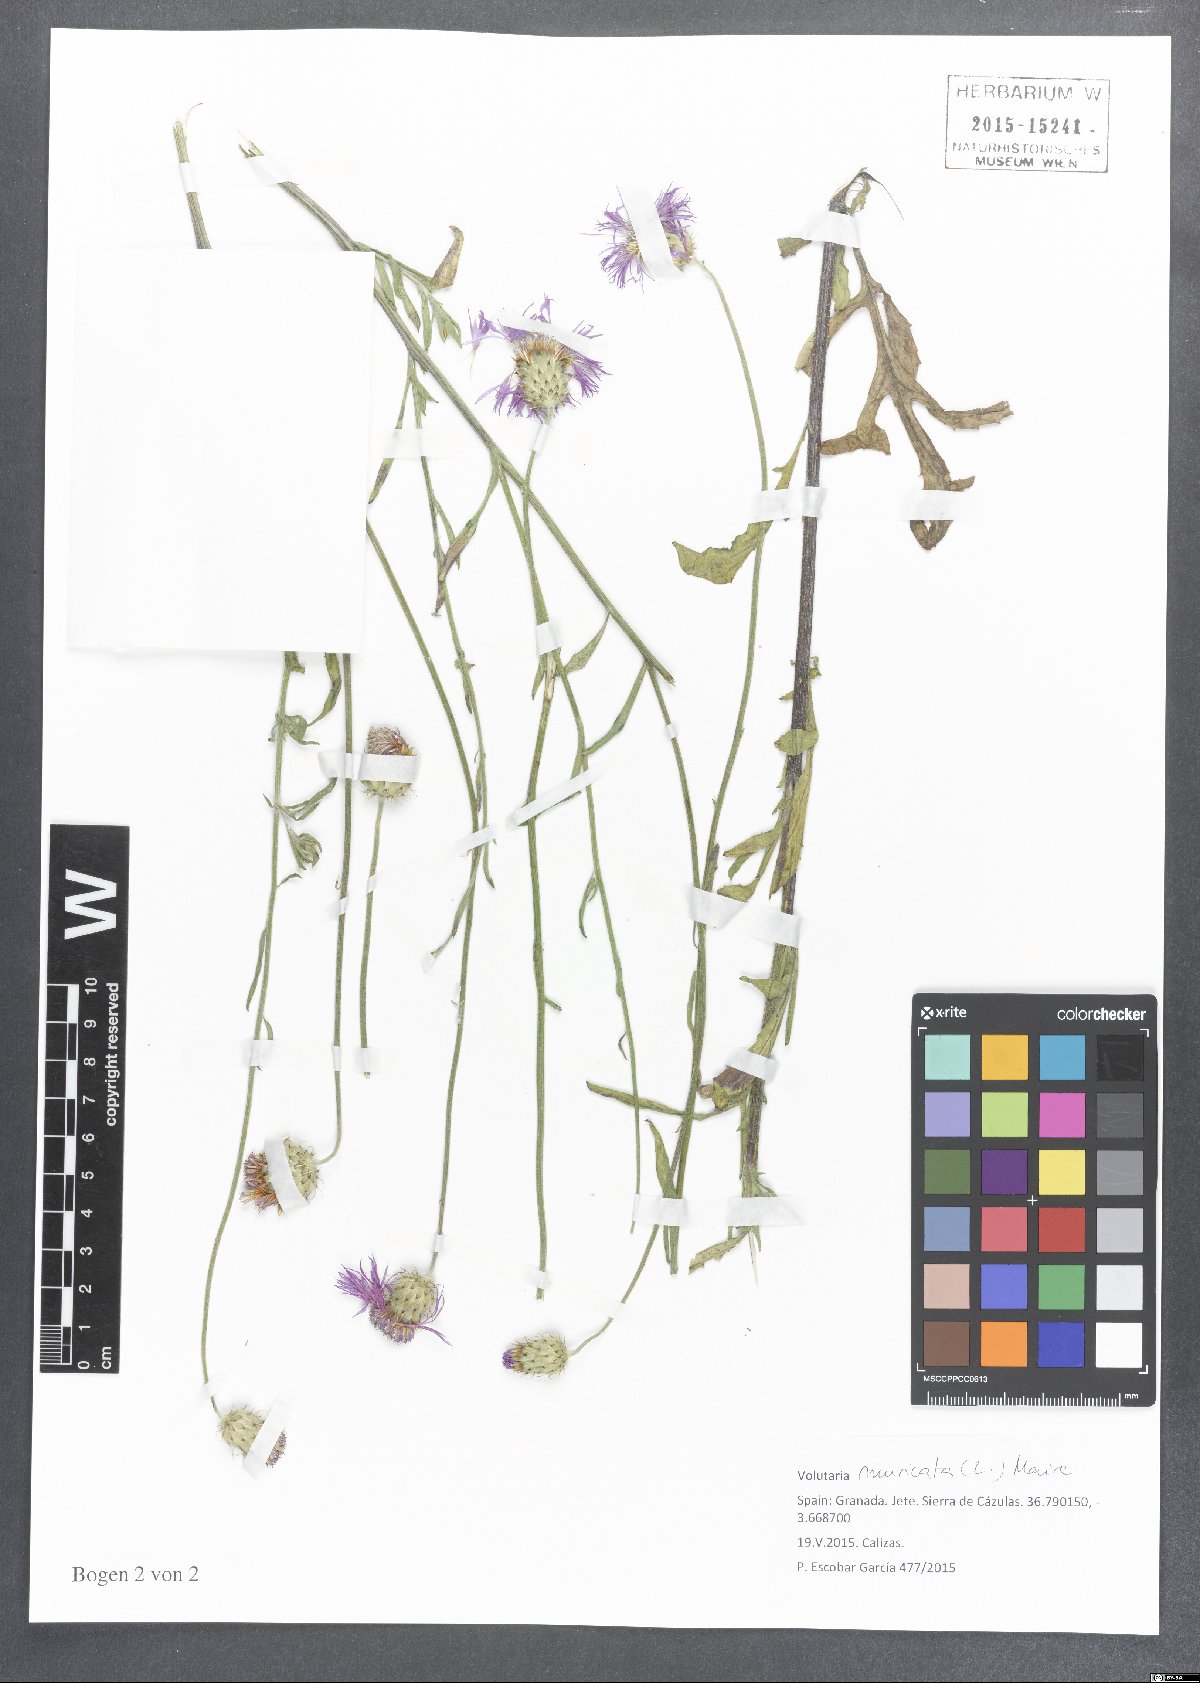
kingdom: Plantae
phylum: Tracheophyta
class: Magnoliopsida
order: Asterales
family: Asteraceae
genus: Volutaria
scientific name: Volutaria muricata
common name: Morocco knapweed
